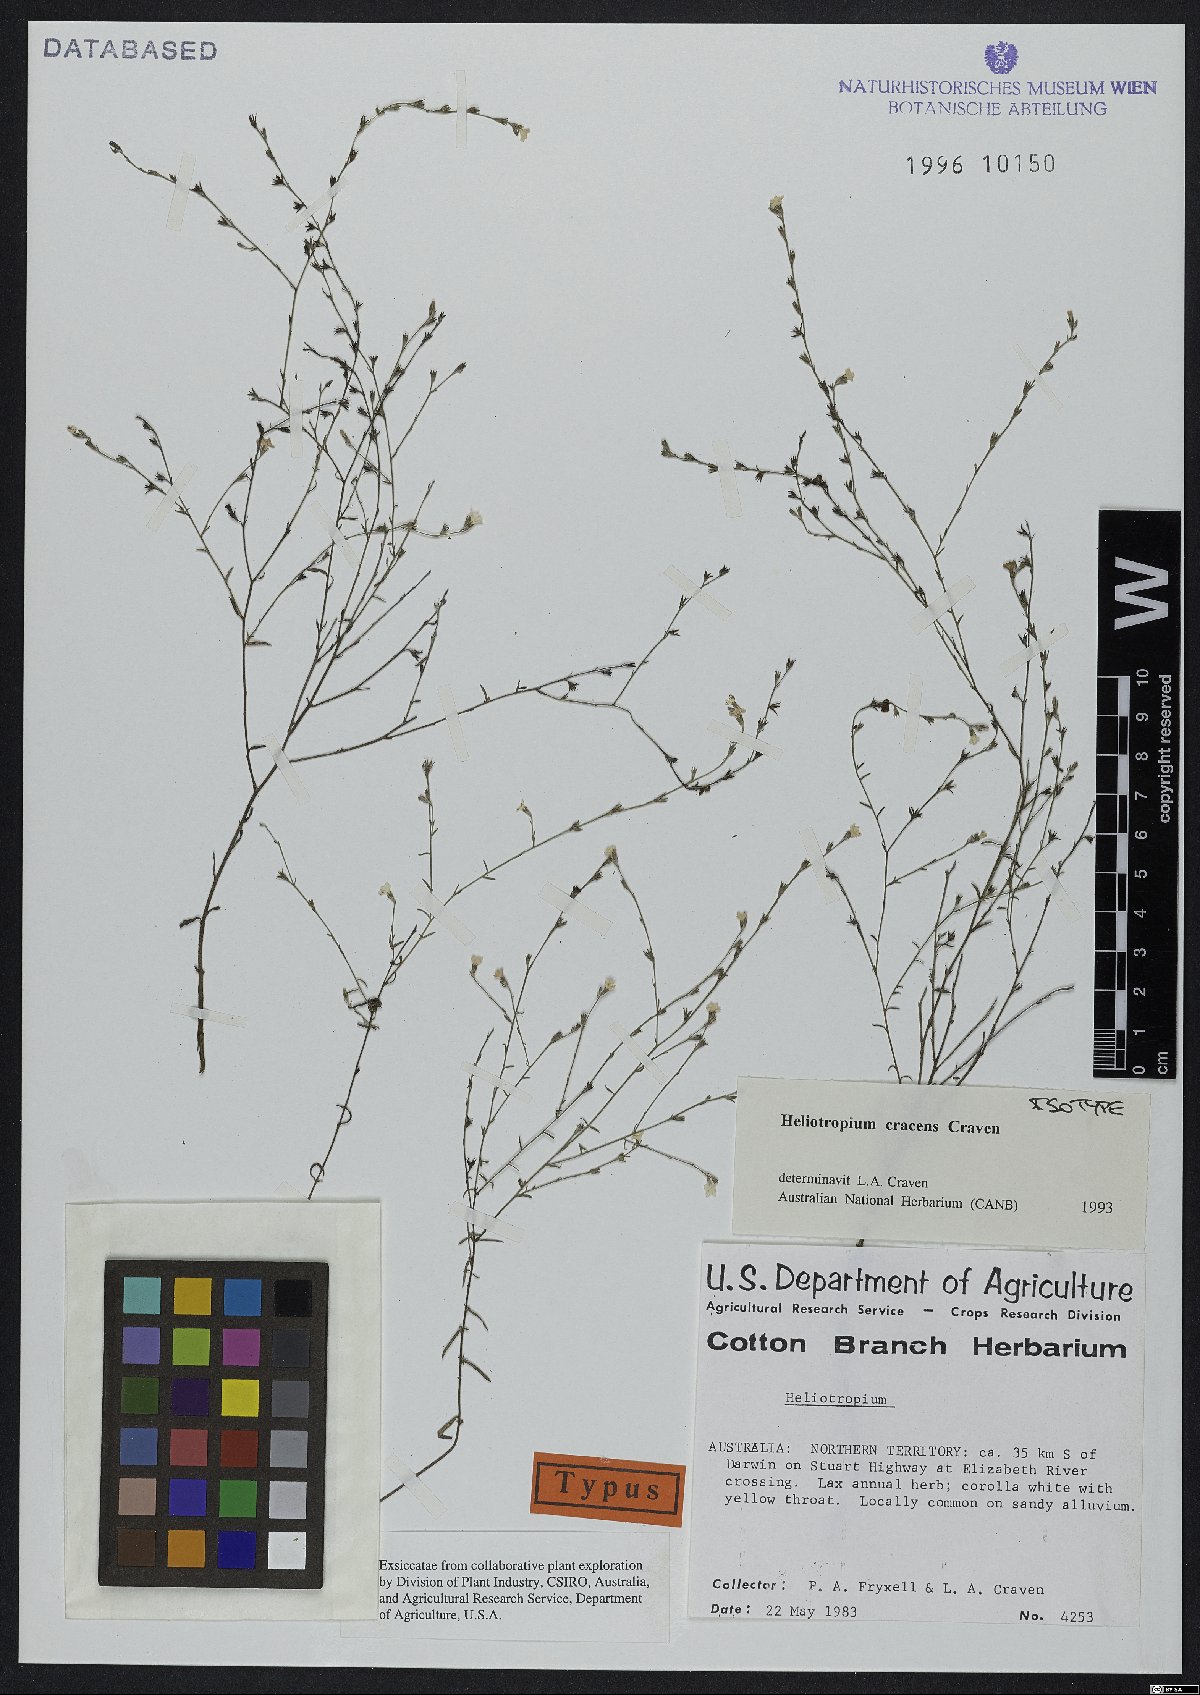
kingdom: Plantae
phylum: Tracheophyta
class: Magnoliopsida
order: Boraginales
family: Heliotropiaceae
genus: Euploca
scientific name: Euploca cracens
